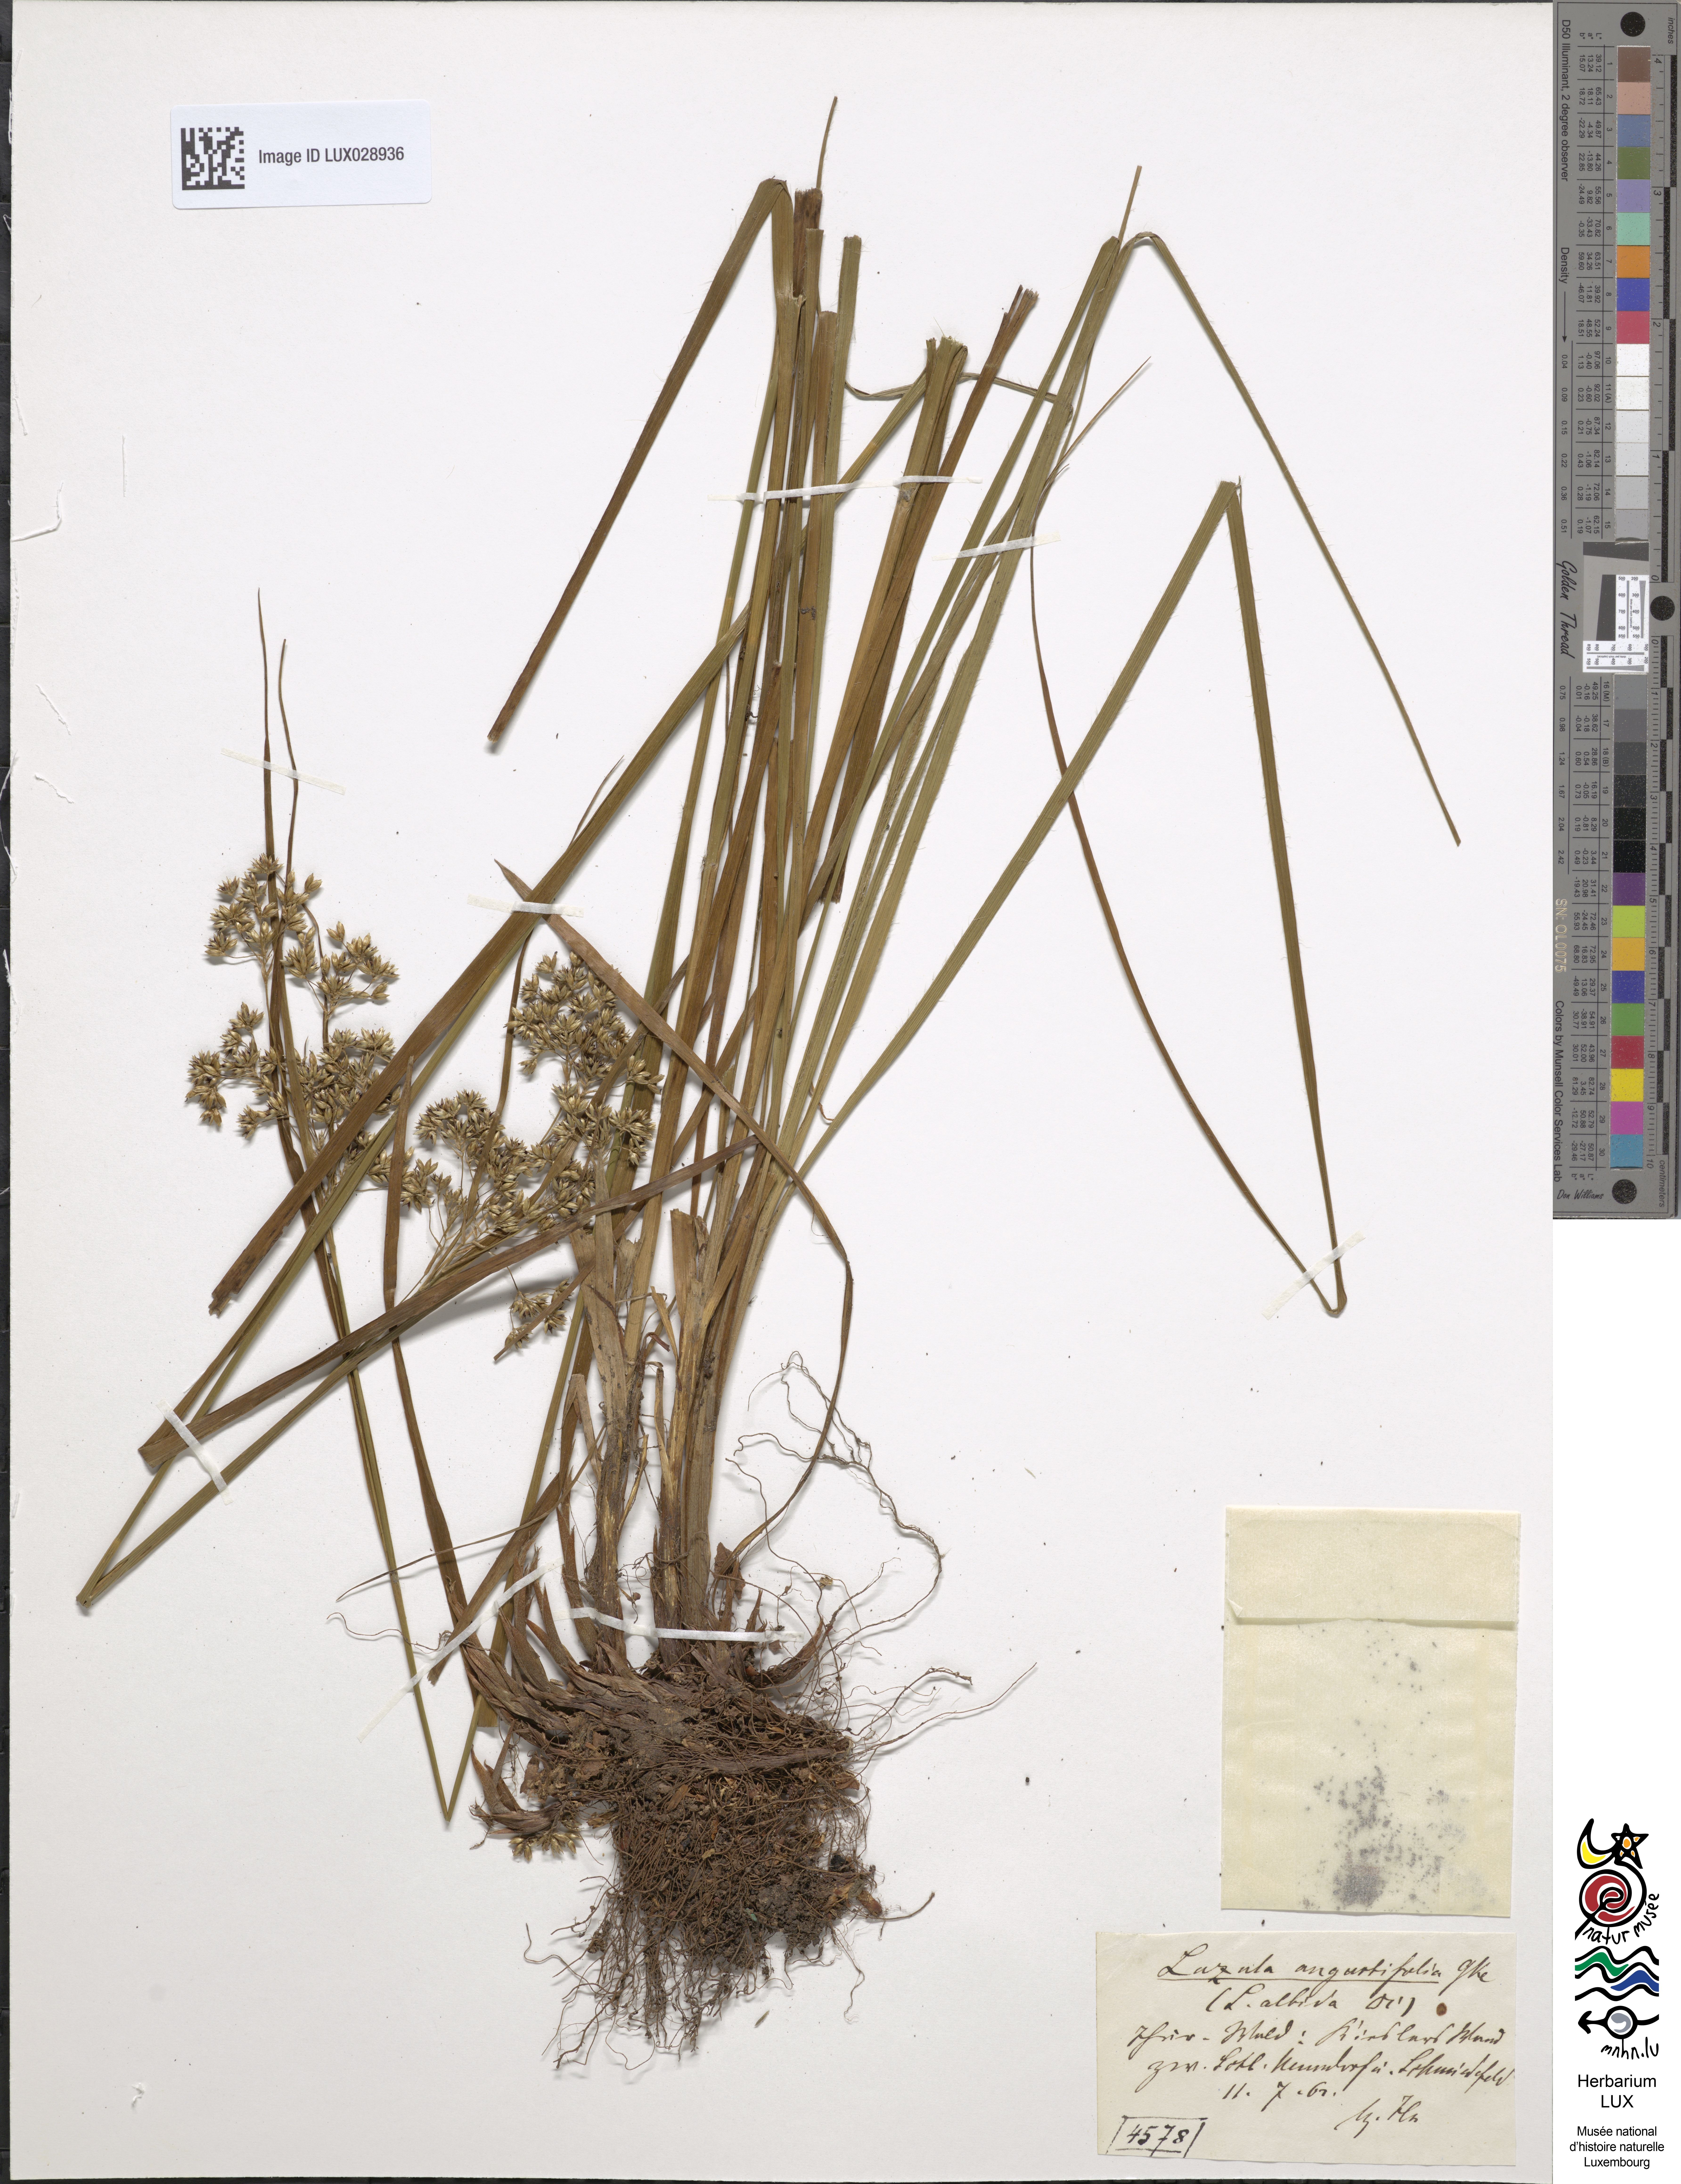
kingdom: Plantae
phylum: Tracheophyta
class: Liliopsida
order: Poales
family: Juncaceae
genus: Luzula
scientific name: Luzula luzuloides
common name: White wood-rush
